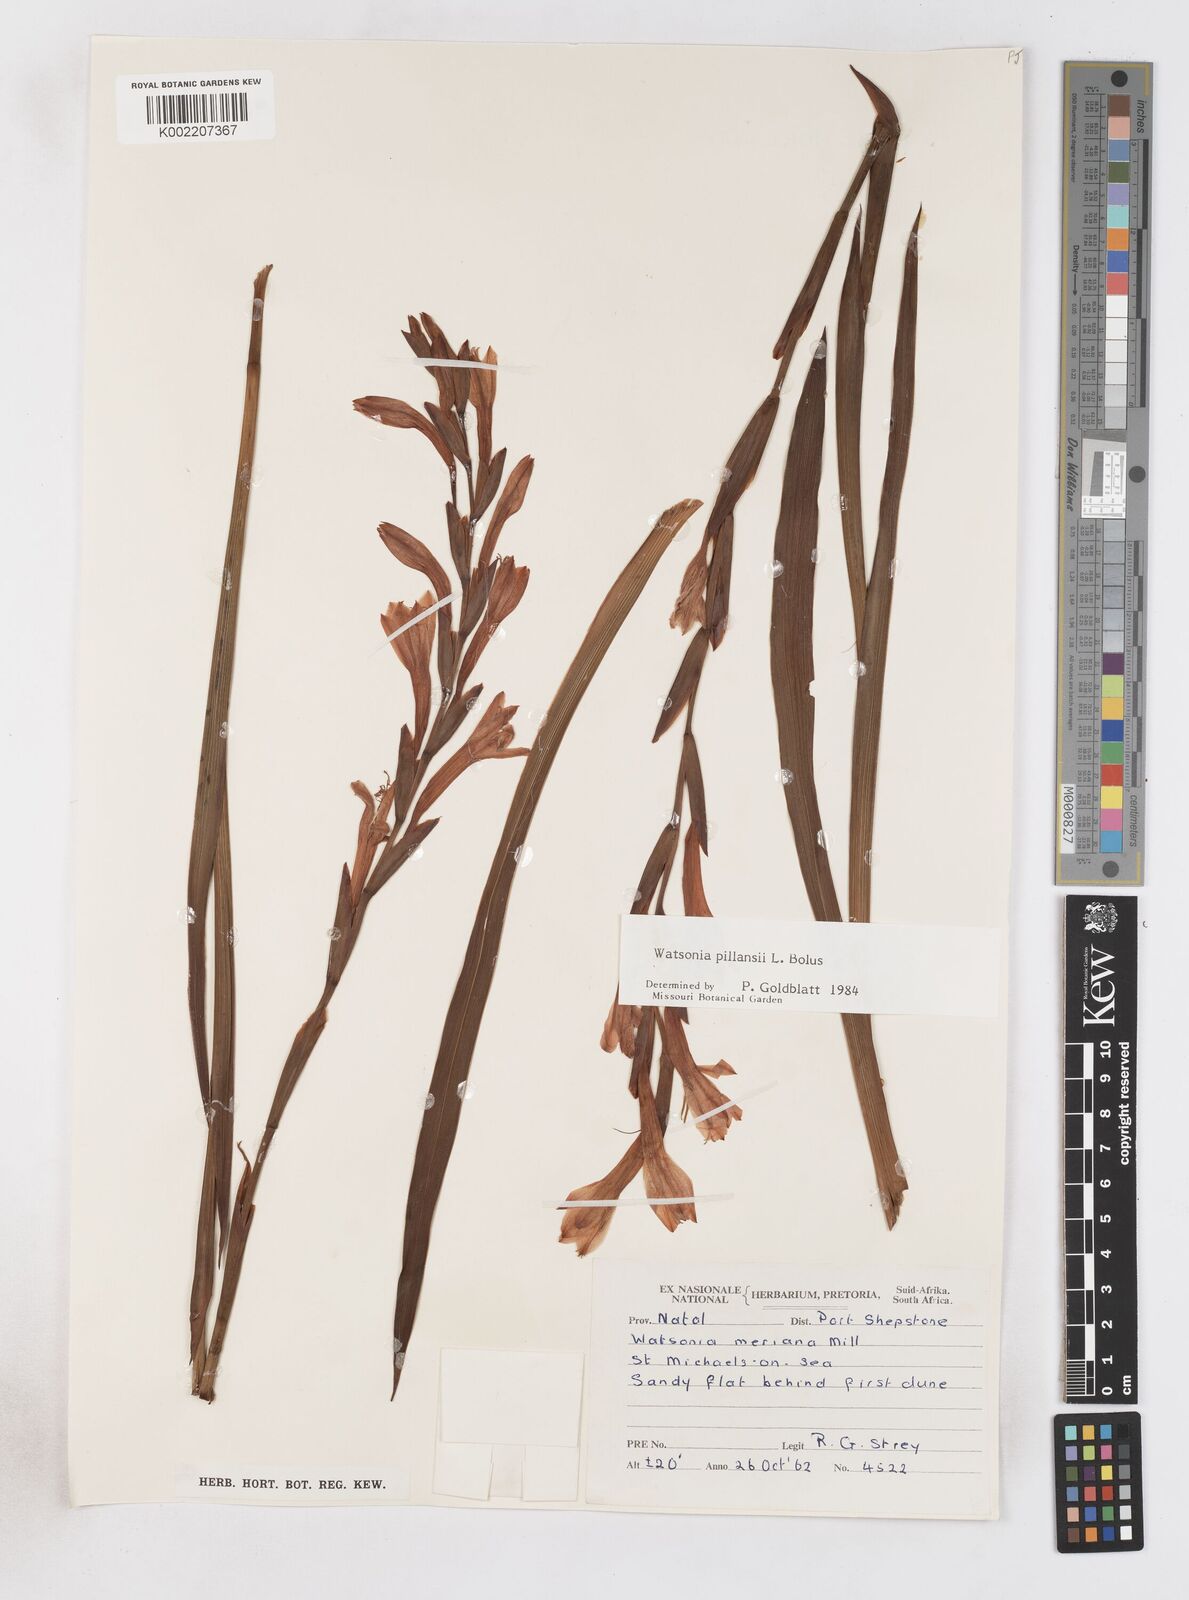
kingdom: Plantae
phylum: Tracheophyta
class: Liliopsida
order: Asparagales
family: Iridaceae
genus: Watsonia
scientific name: Watsonia pillansii
